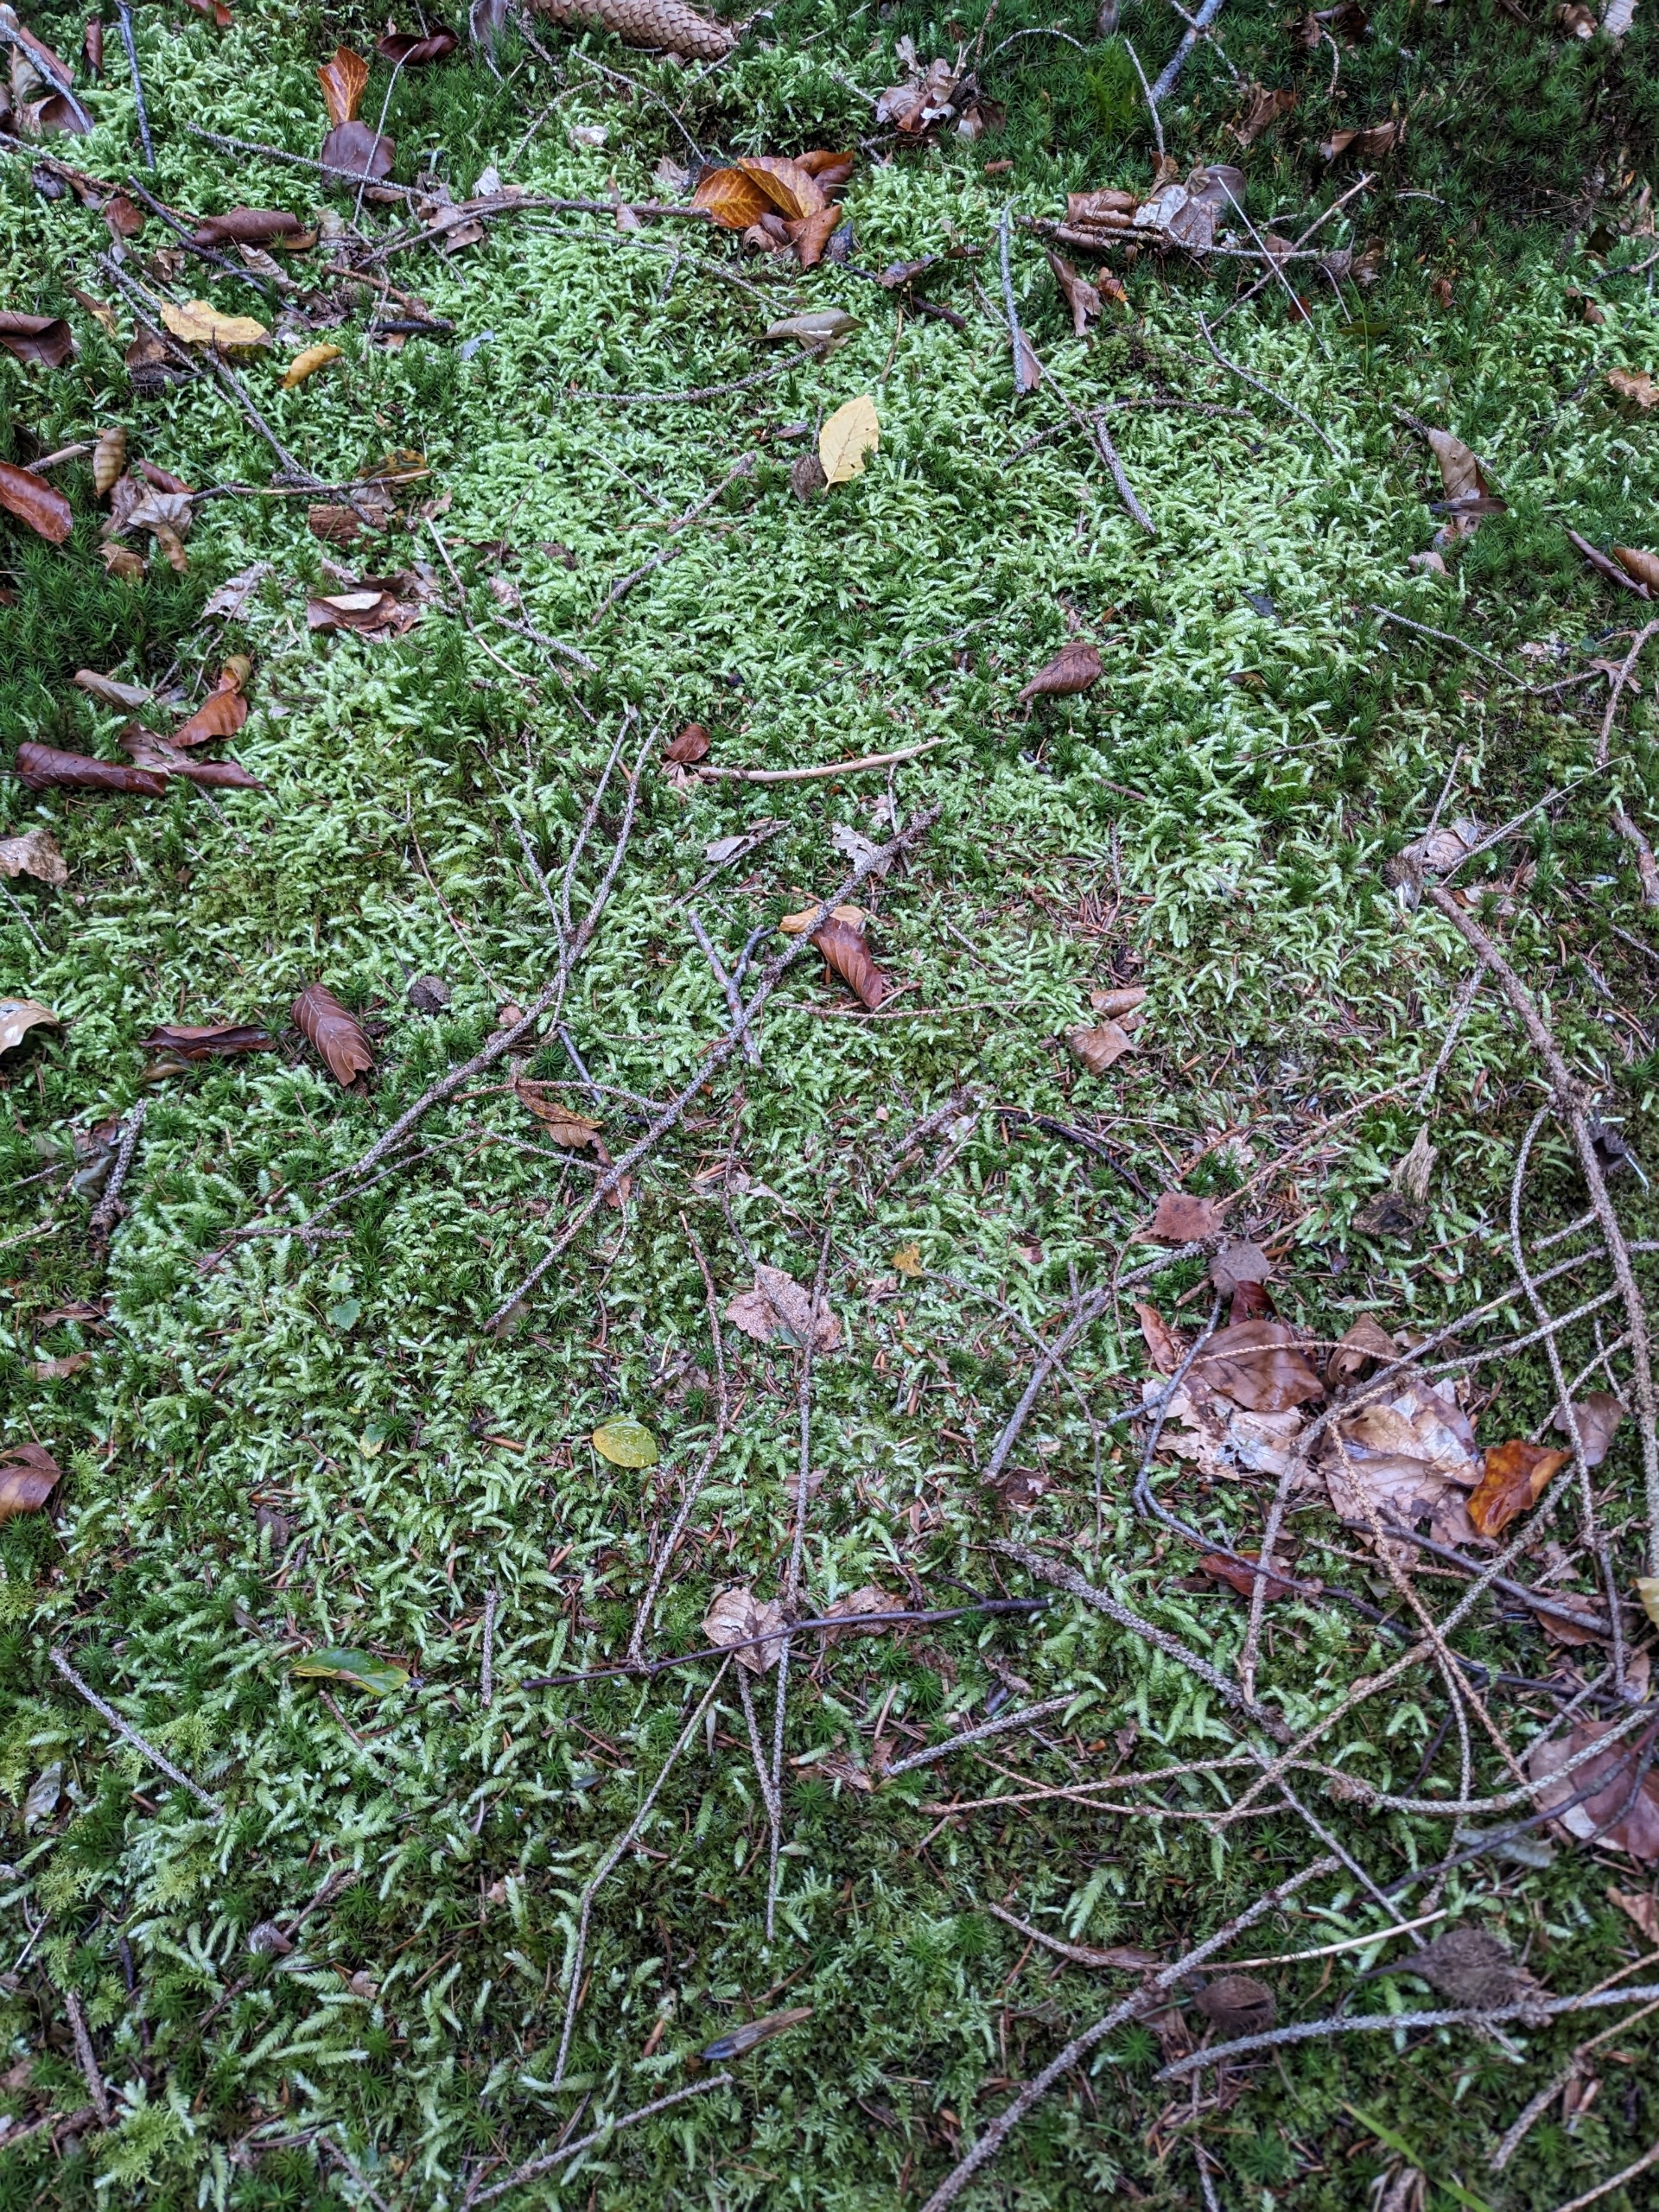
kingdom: Plantae
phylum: Bryophyta
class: Bryopsida
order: Hypnales
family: Plagiotheciaceae
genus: Plagiothecium
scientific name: Plagiothecium undulatum
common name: Bølget tæppemos
